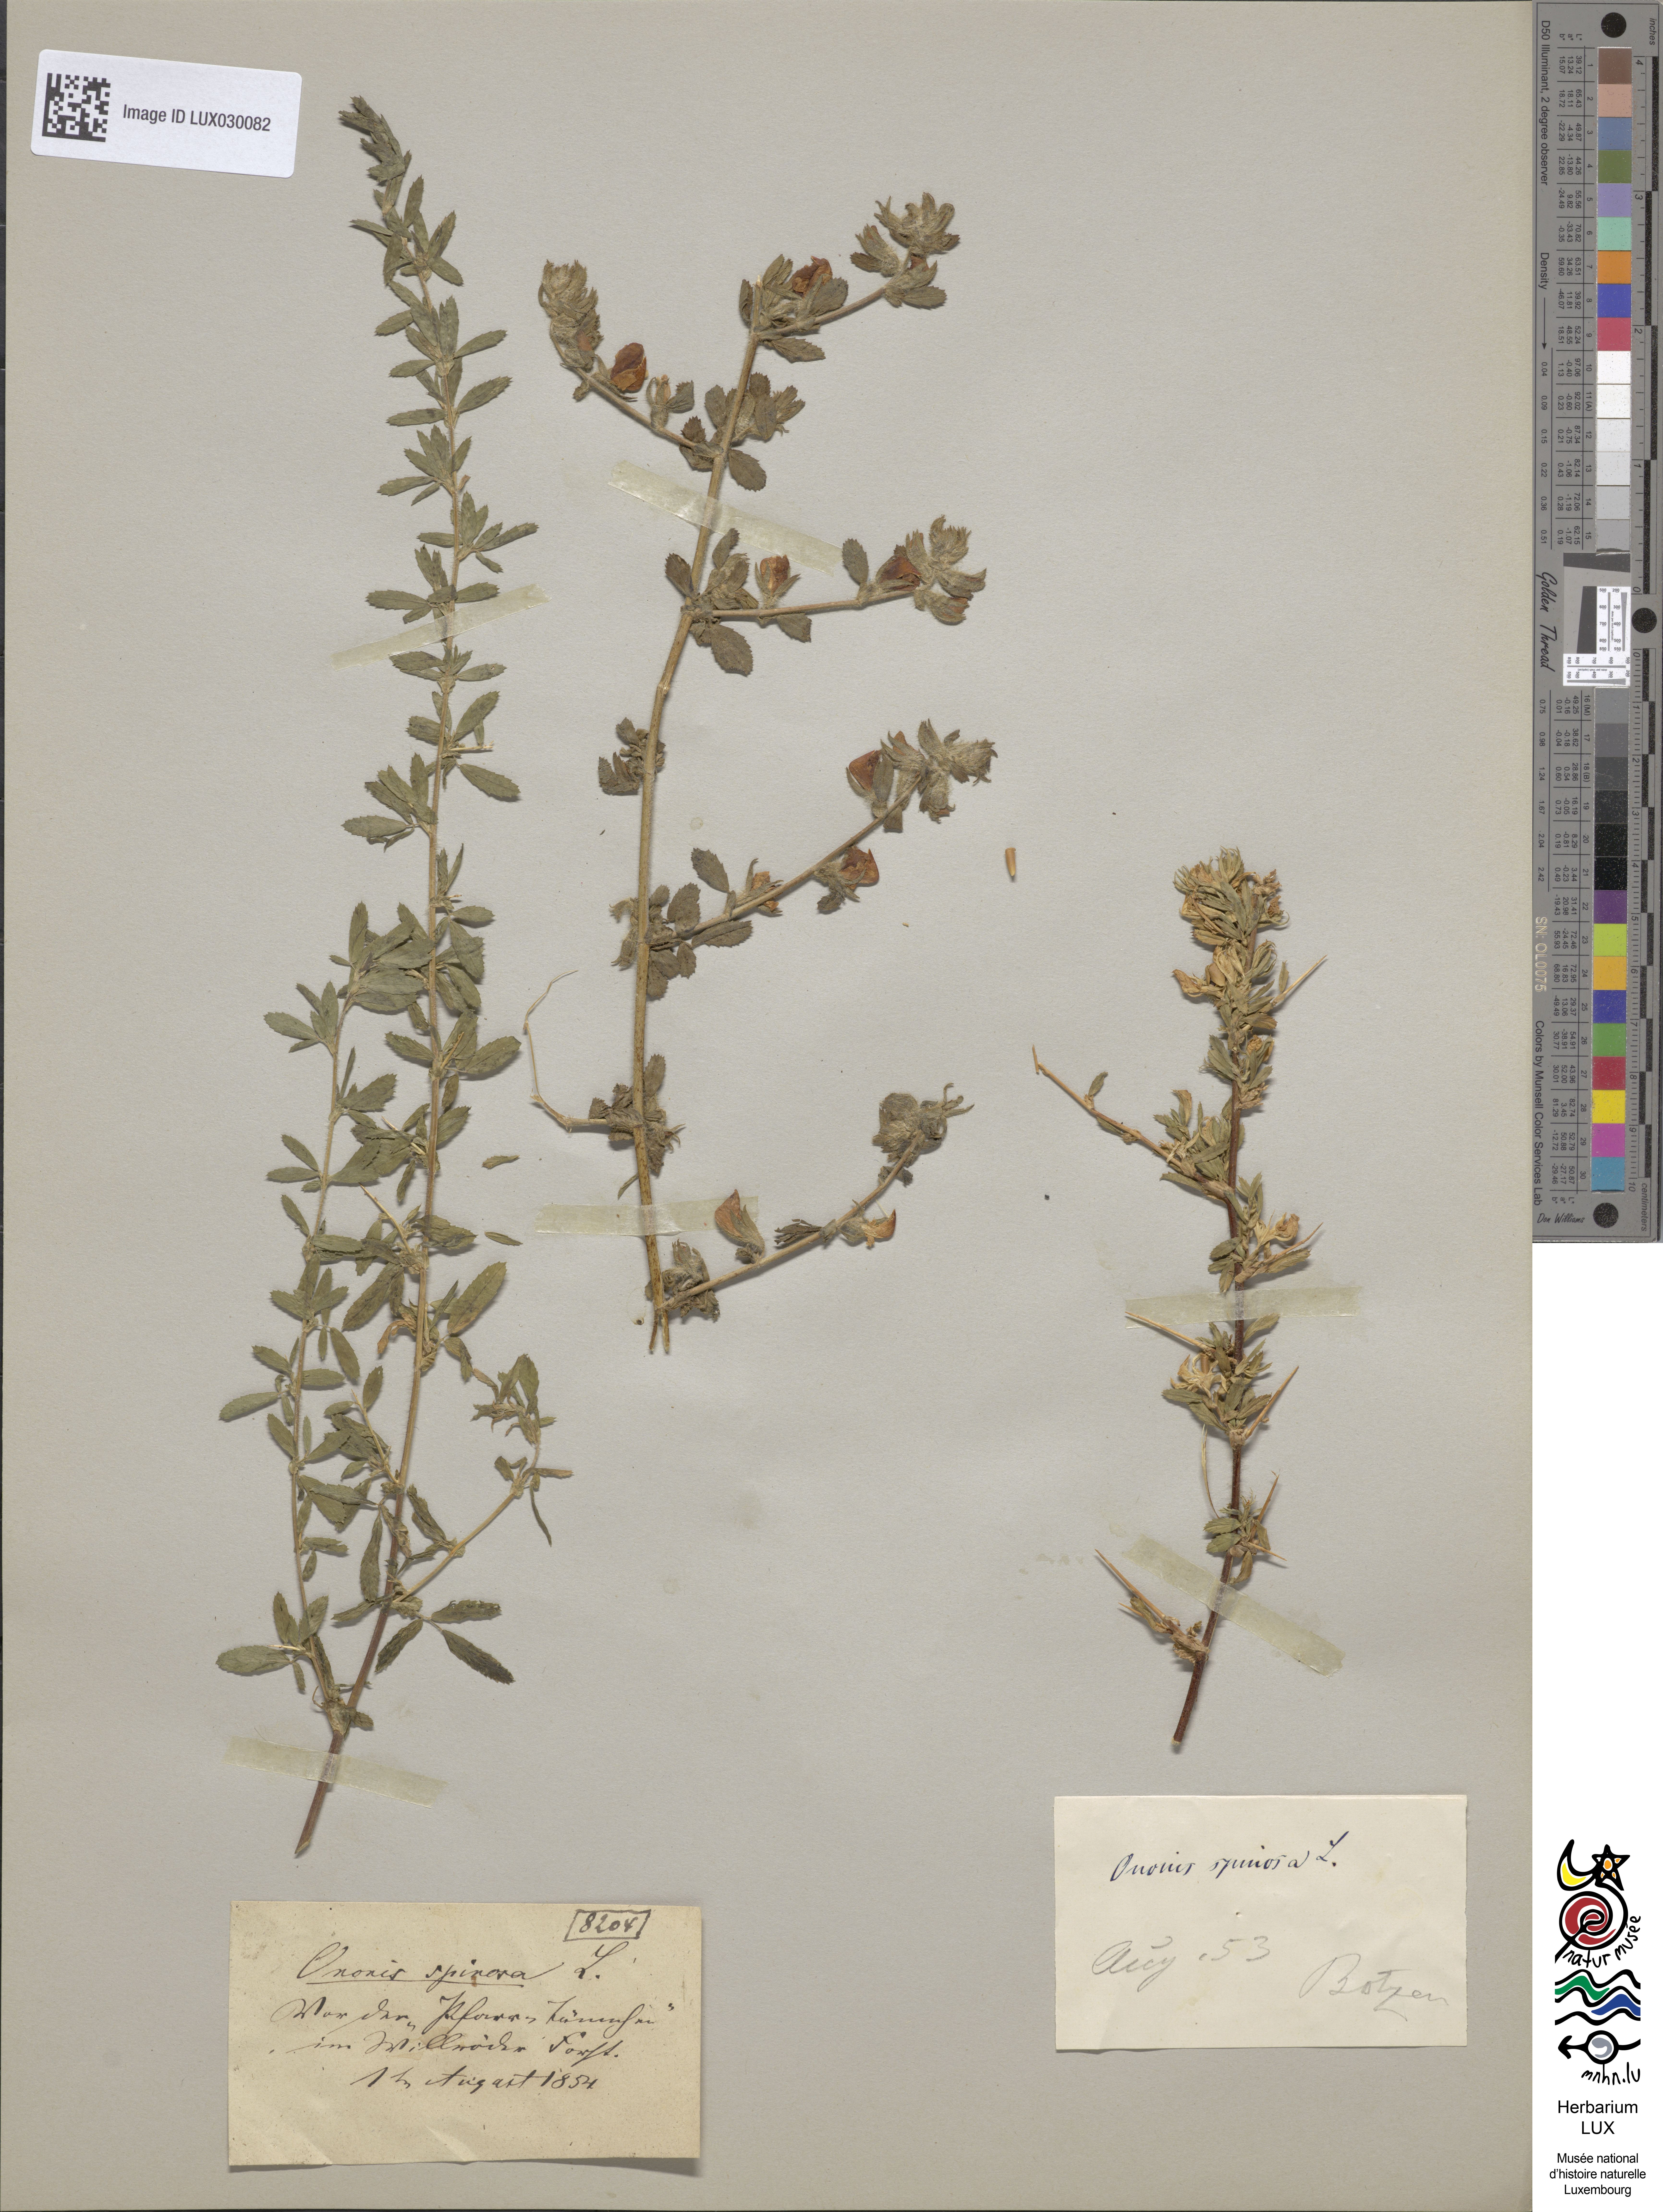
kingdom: Plantae
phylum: Tracheophyta
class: Magnoliopsida
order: Fabales
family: Fabaceae
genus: Ononis
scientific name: Ononis spinosa
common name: Spiny restharrow
